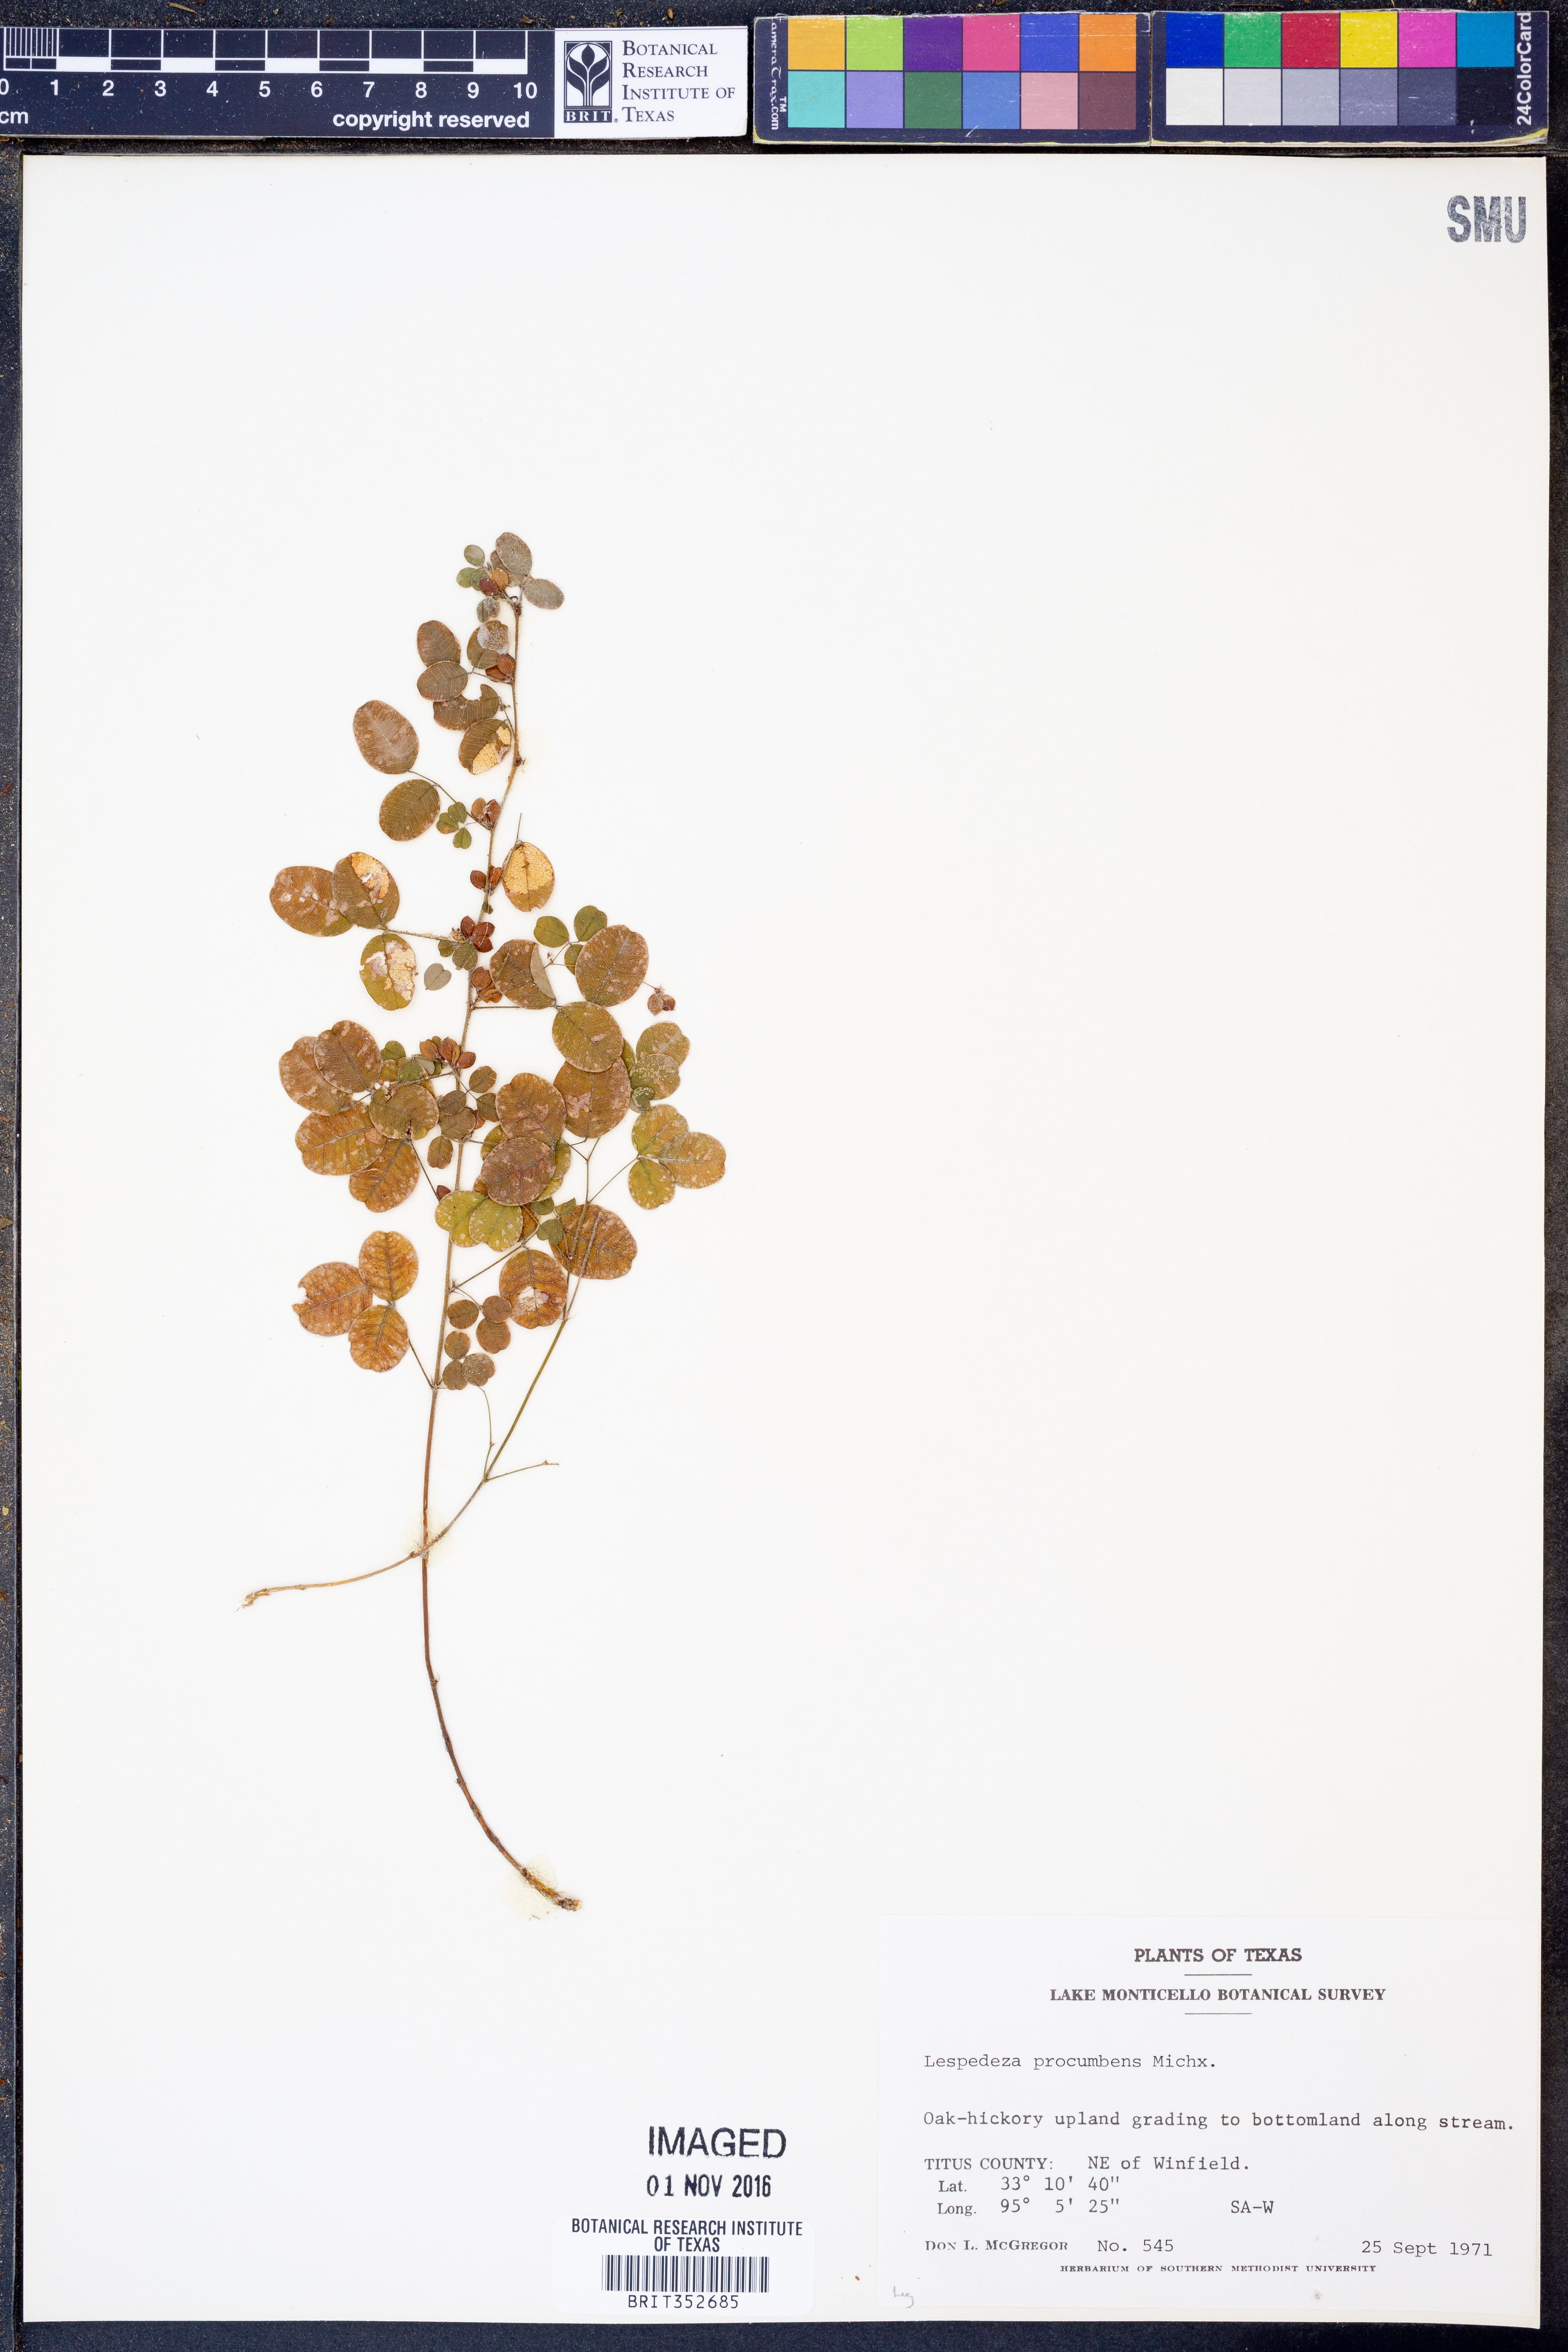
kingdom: Plantae
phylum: Tracheophyta
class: Magnoliopsida
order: Fabales
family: Fabaceae
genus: Lespedeza
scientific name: Lespedeza procumbens
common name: Downy trailing bush-clover
